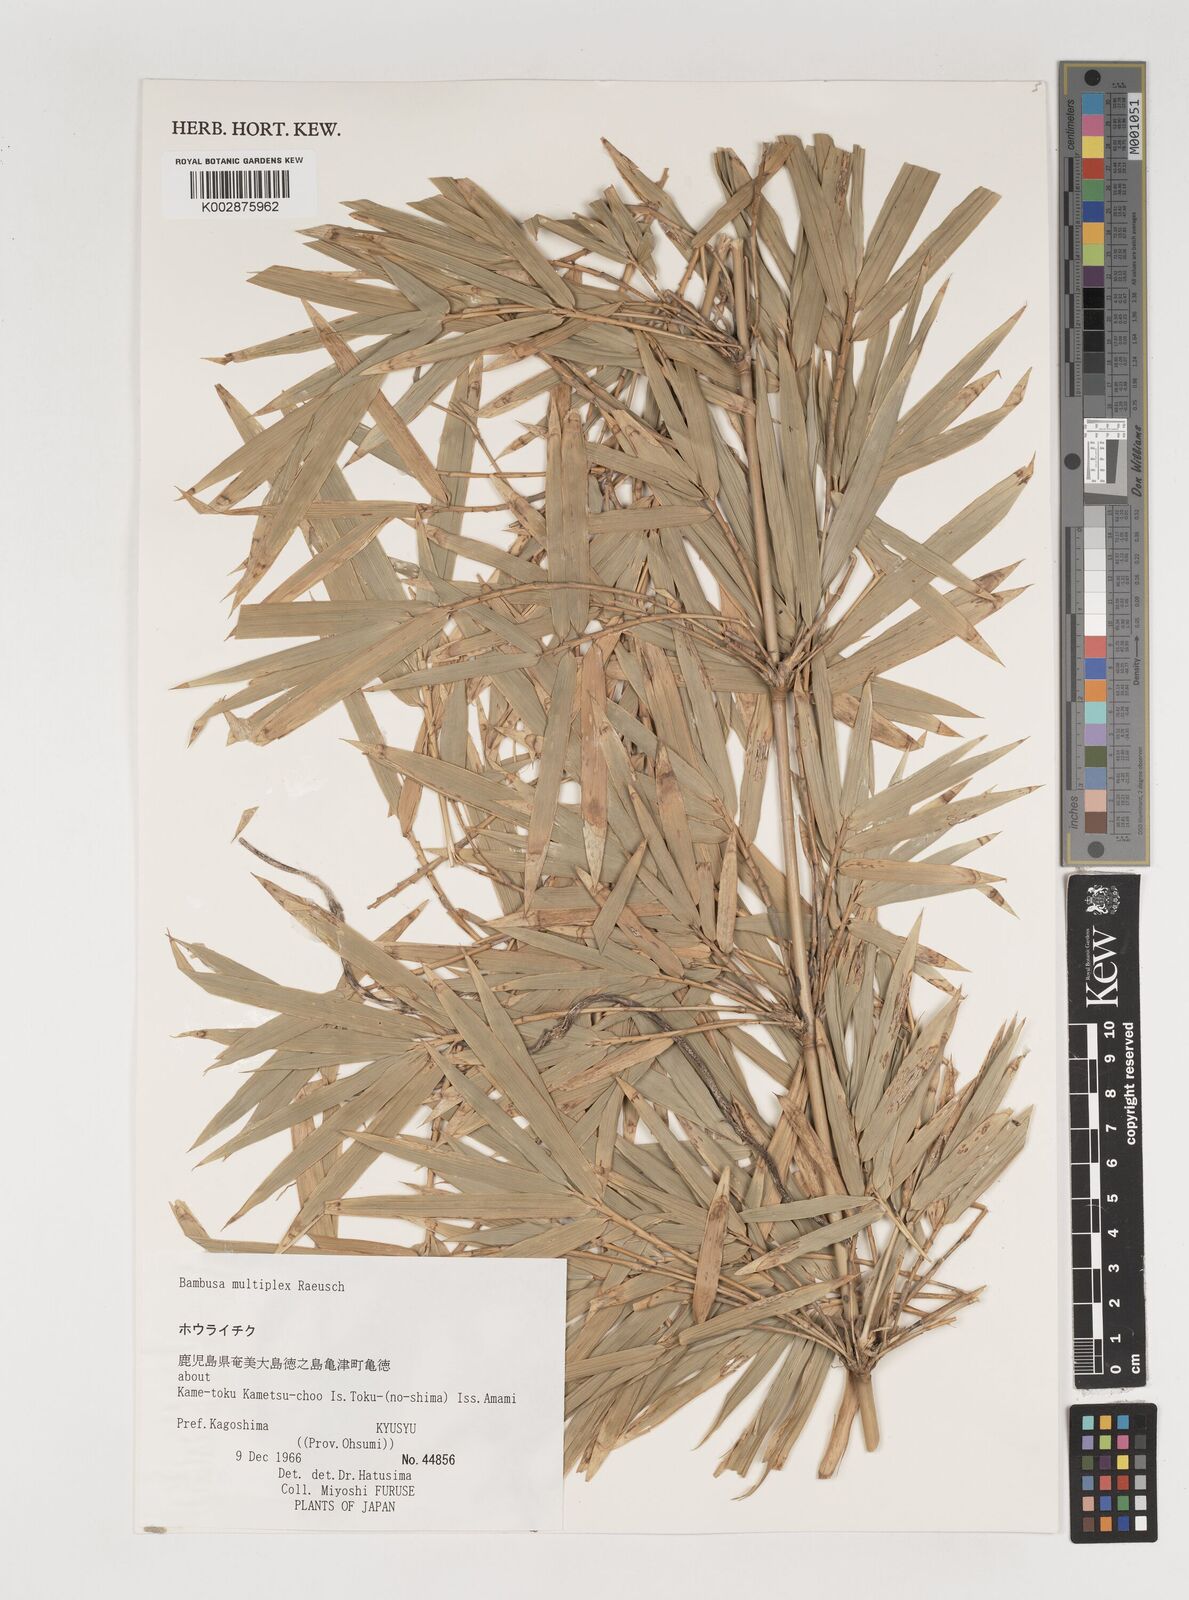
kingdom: Plantae
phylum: Tracheophyta
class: Liliopsida
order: Poales
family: Poaceae
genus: Bambusa
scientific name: Bambusa multiplex
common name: Hedge bamboo
